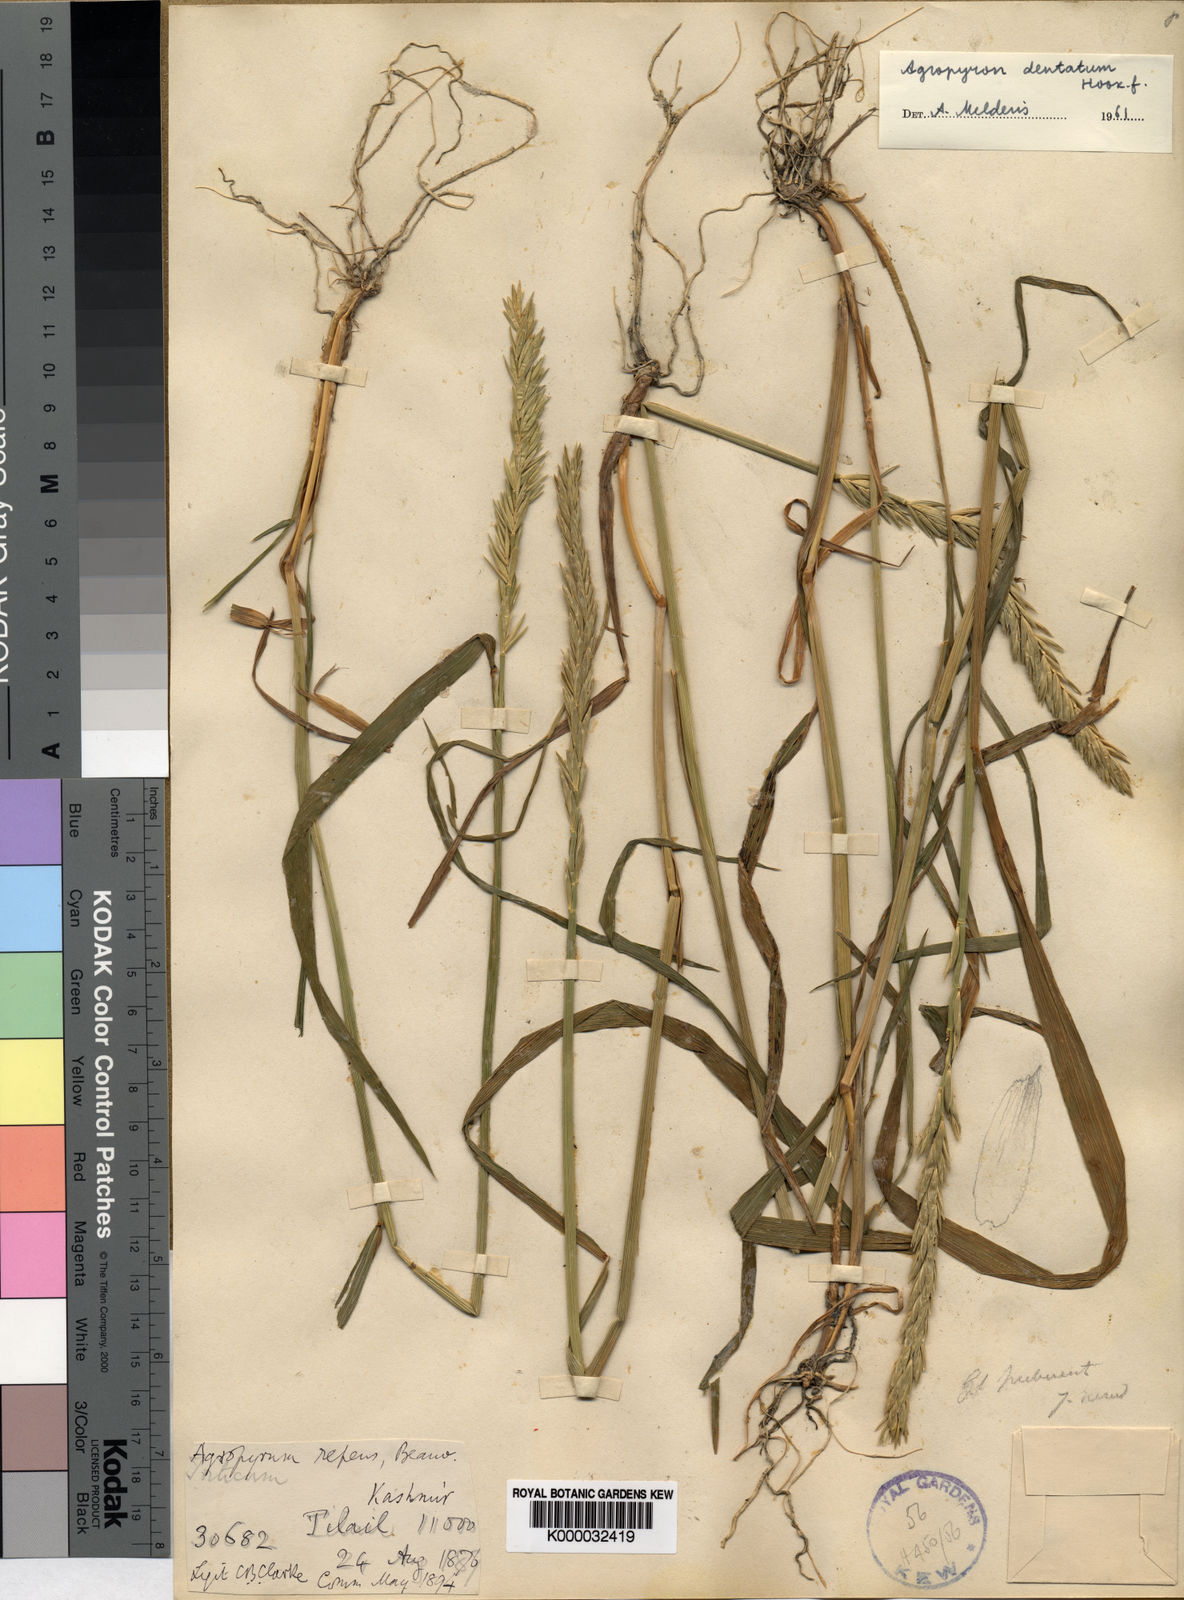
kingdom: Plantae
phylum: Tracheophyta
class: Liliopsida
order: Poales
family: Poaceae
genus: Elymus
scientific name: Elymus
